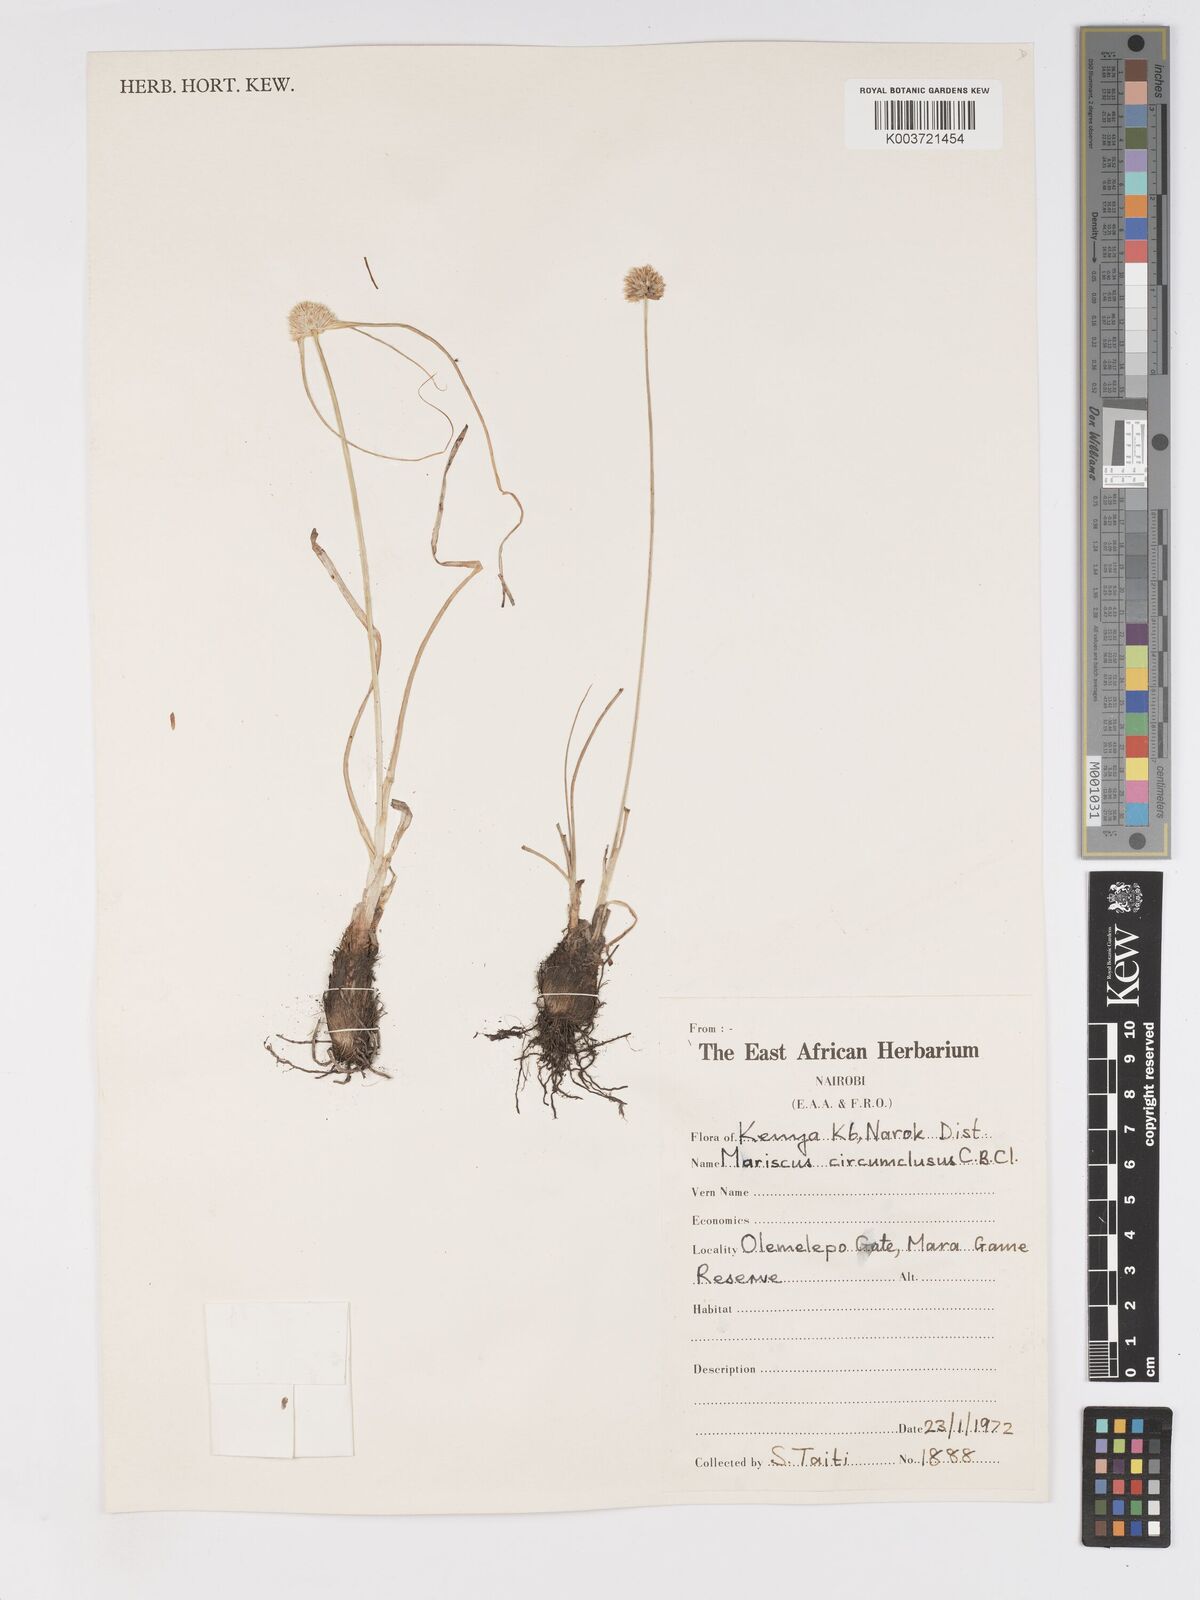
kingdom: Plantae
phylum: Tracheophyta
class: Liliopsida
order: Poales
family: Cyperaceae
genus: Cyperus
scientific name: Cyperus mollipes
